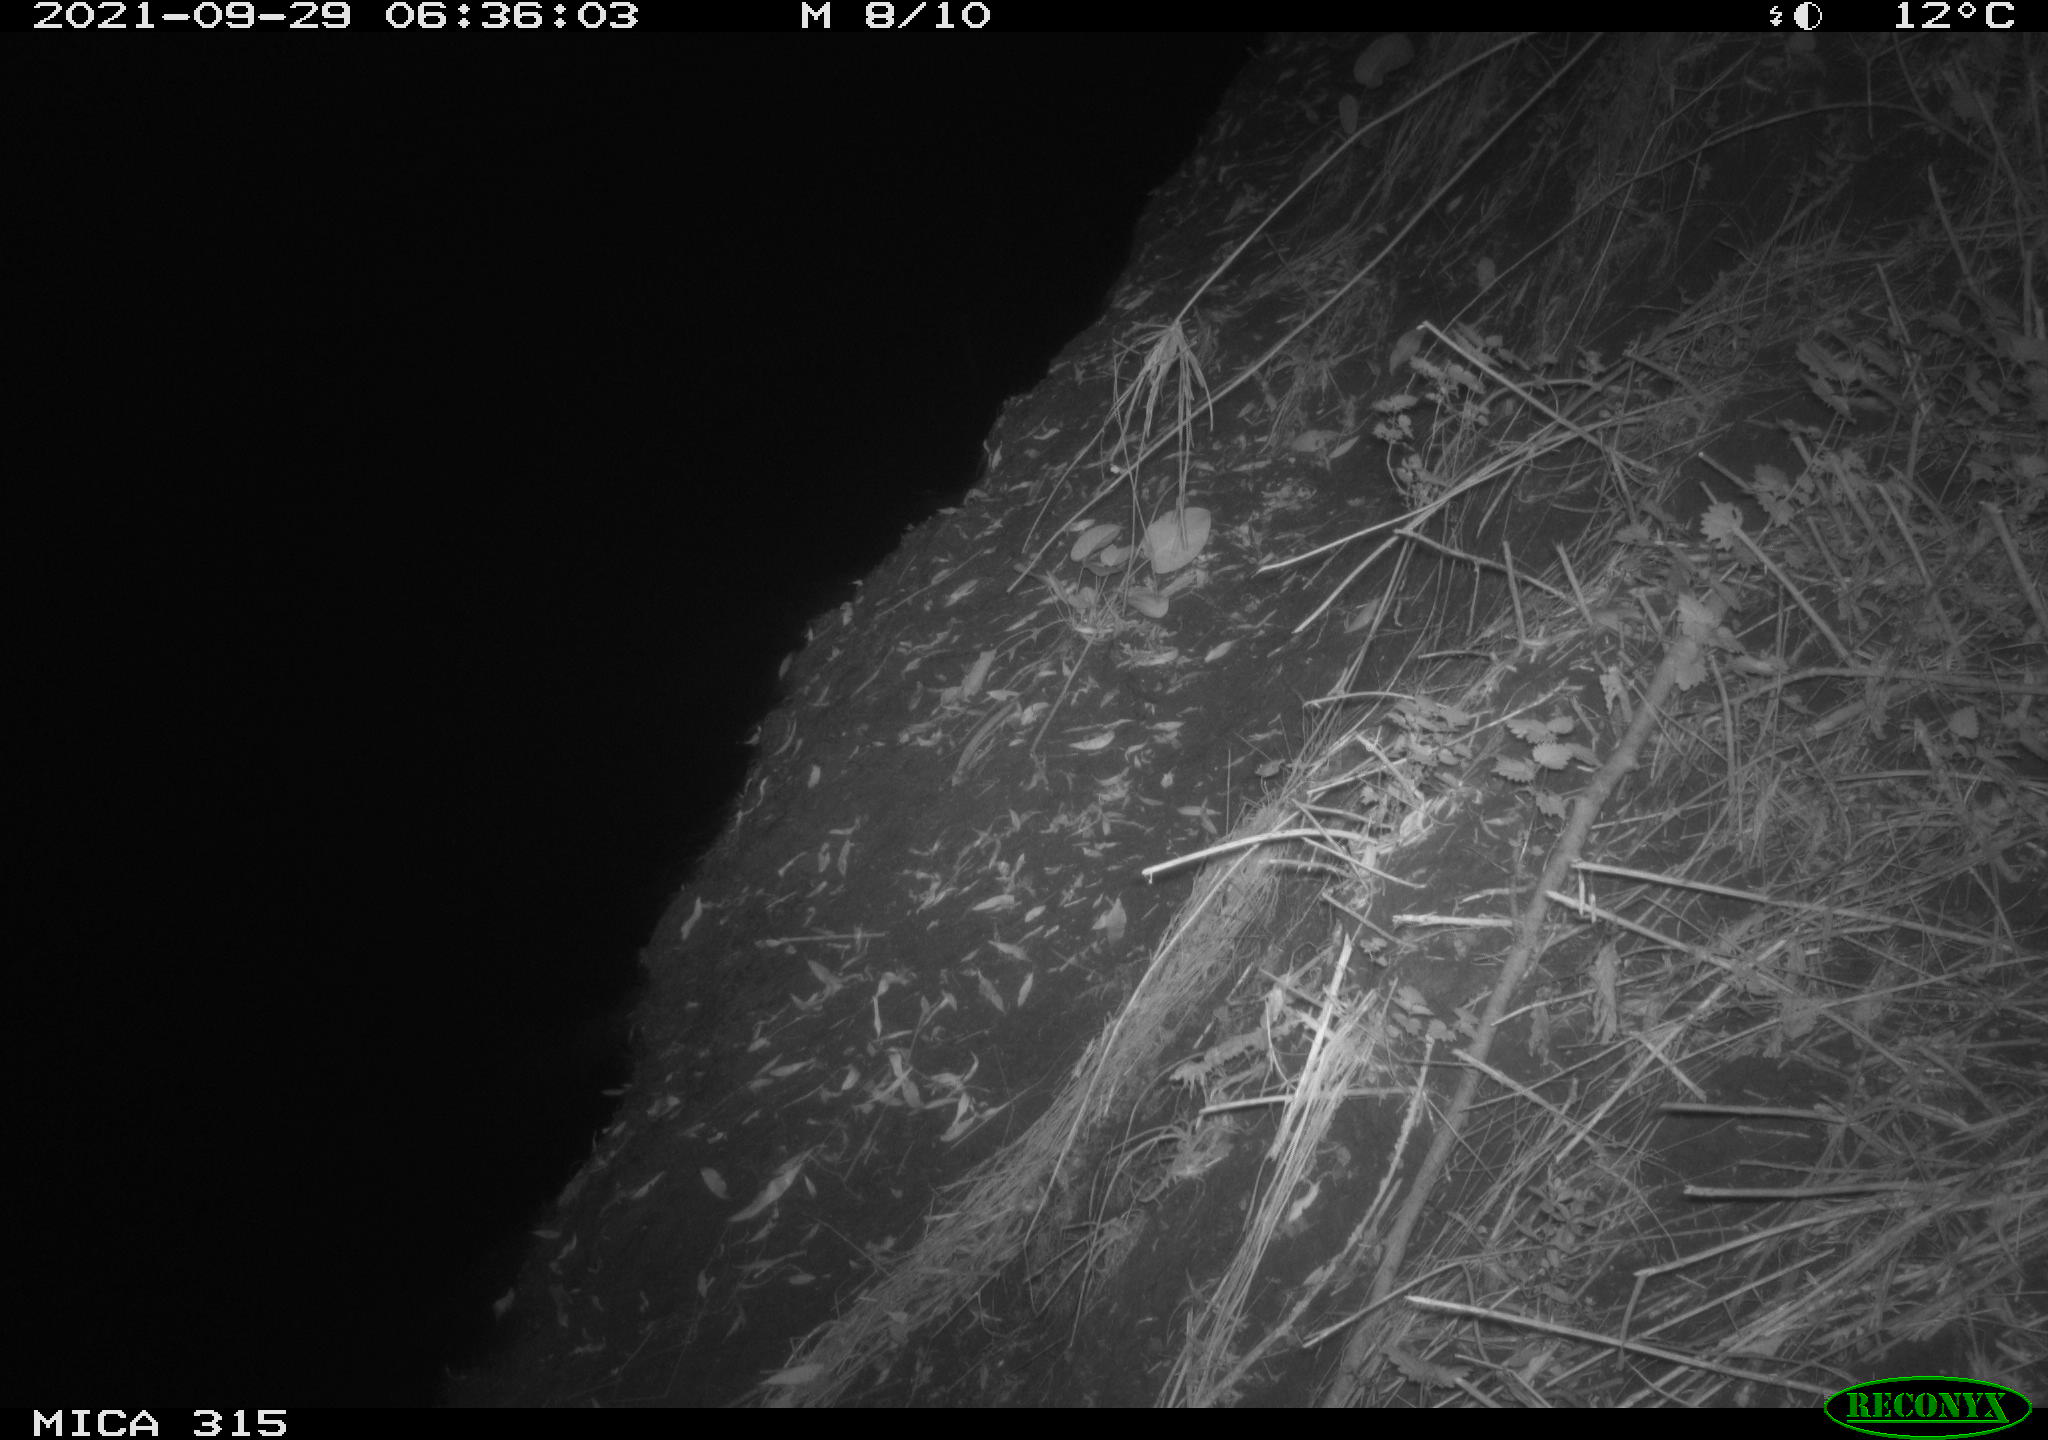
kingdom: Animalia
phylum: Chordata
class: Mammalia
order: Rodentia
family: Muridae
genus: Rattus
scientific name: Rattus norvegicus
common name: Brown rat
